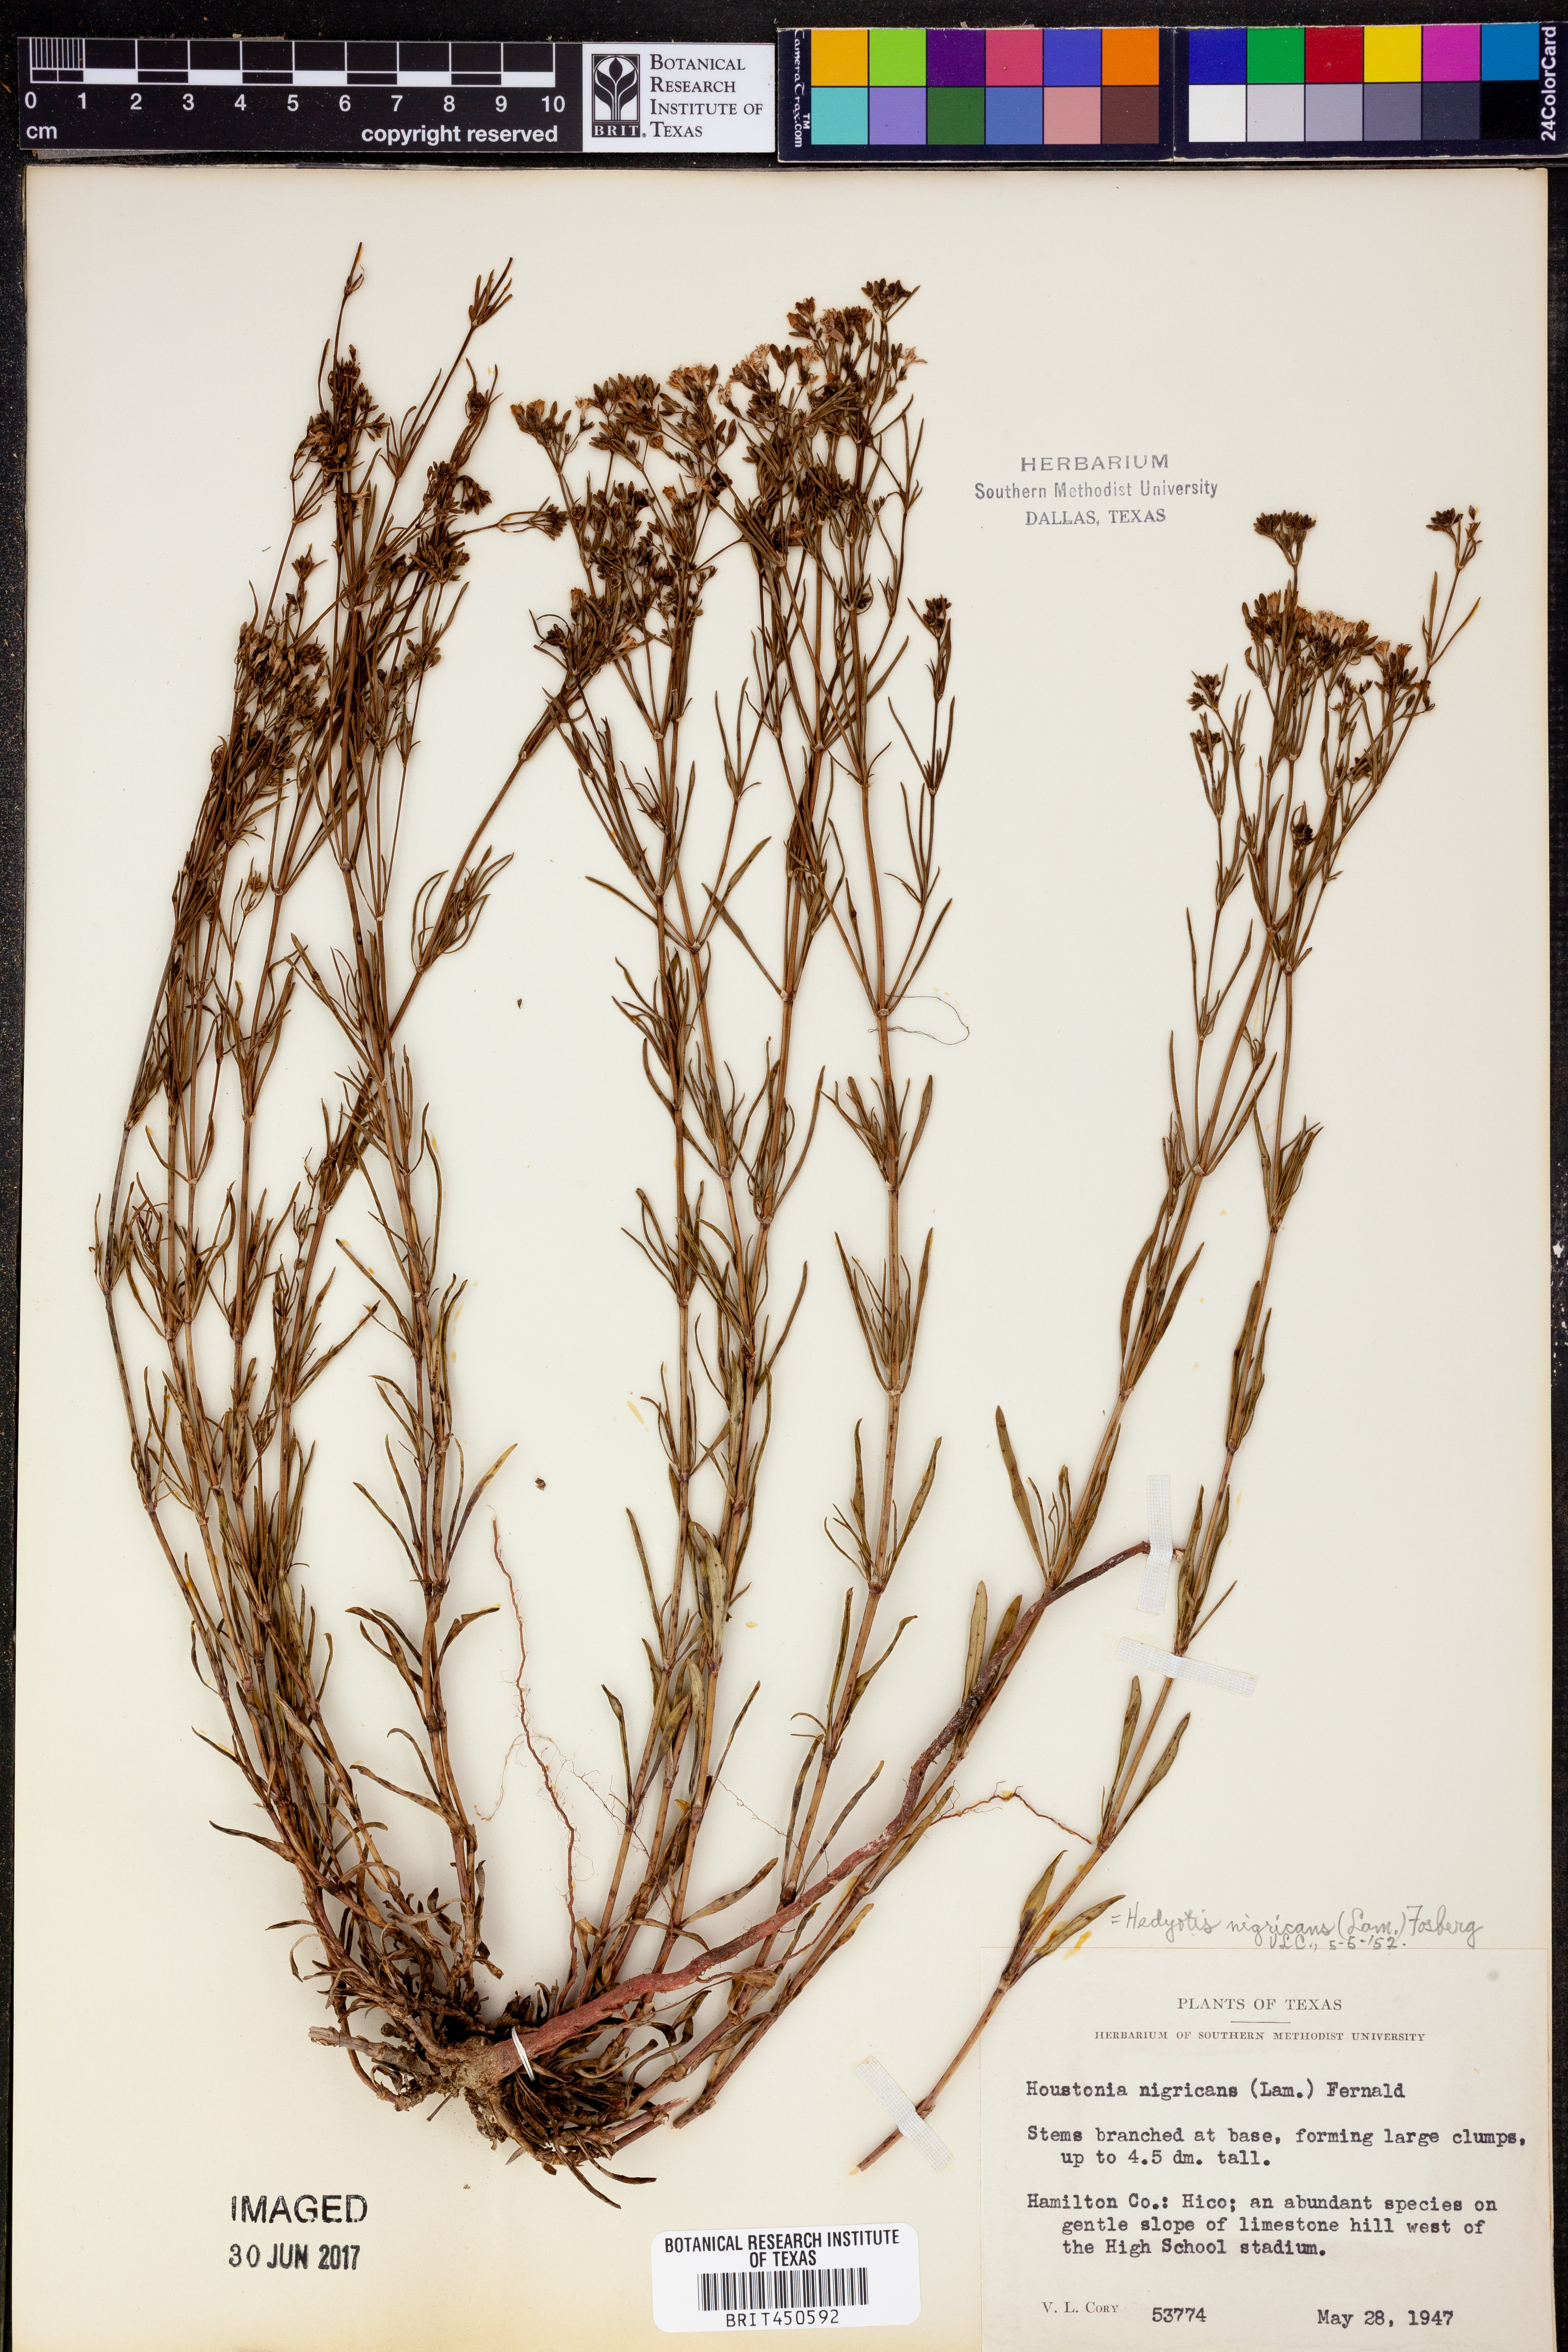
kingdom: Plantae
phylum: Tracheophyta
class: Magnoliopsida
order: Gentianales
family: Rubiaceae
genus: Stenaria
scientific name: Stenaria nigricans
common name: Diamondflowers
